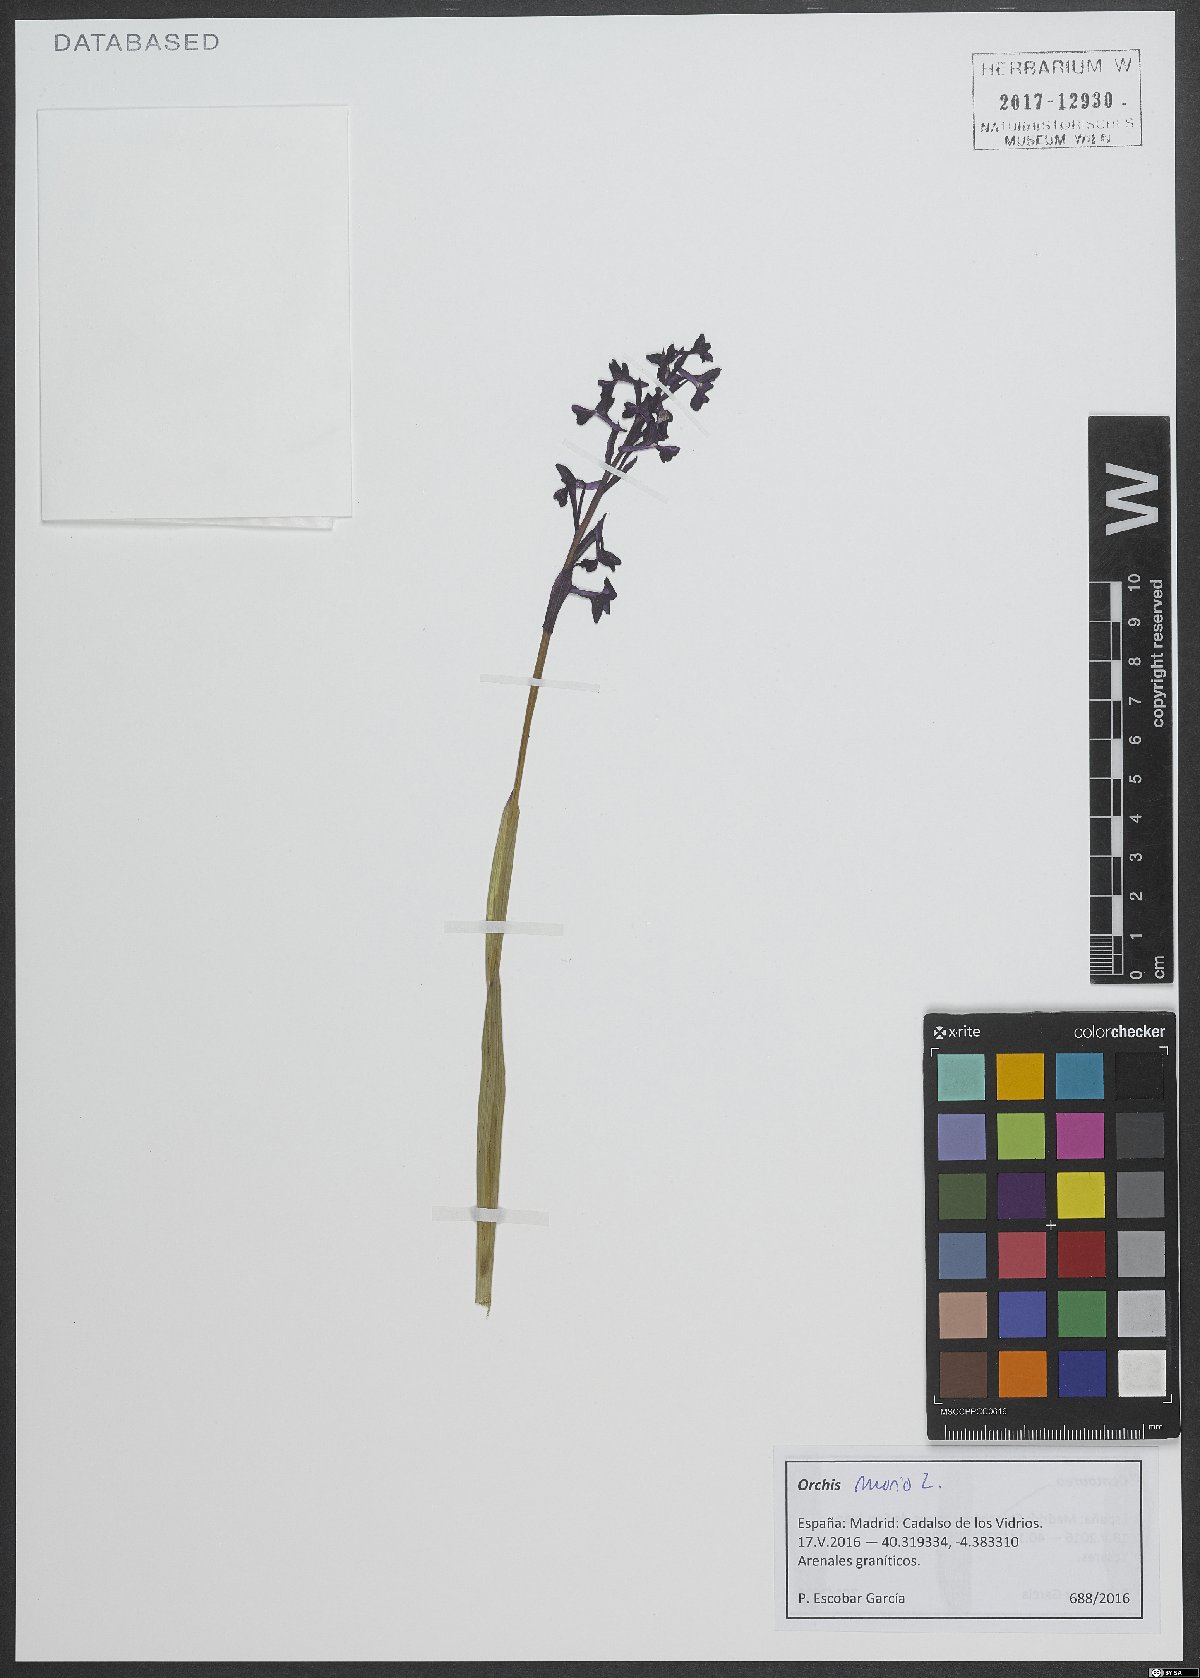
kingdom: Plantae
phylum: Tracheophyta
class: Liliopsida
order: Asparagales
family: Orchidaceae
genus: Anacamptis
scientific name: Anacamptis morio
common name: Green-winged orchid
